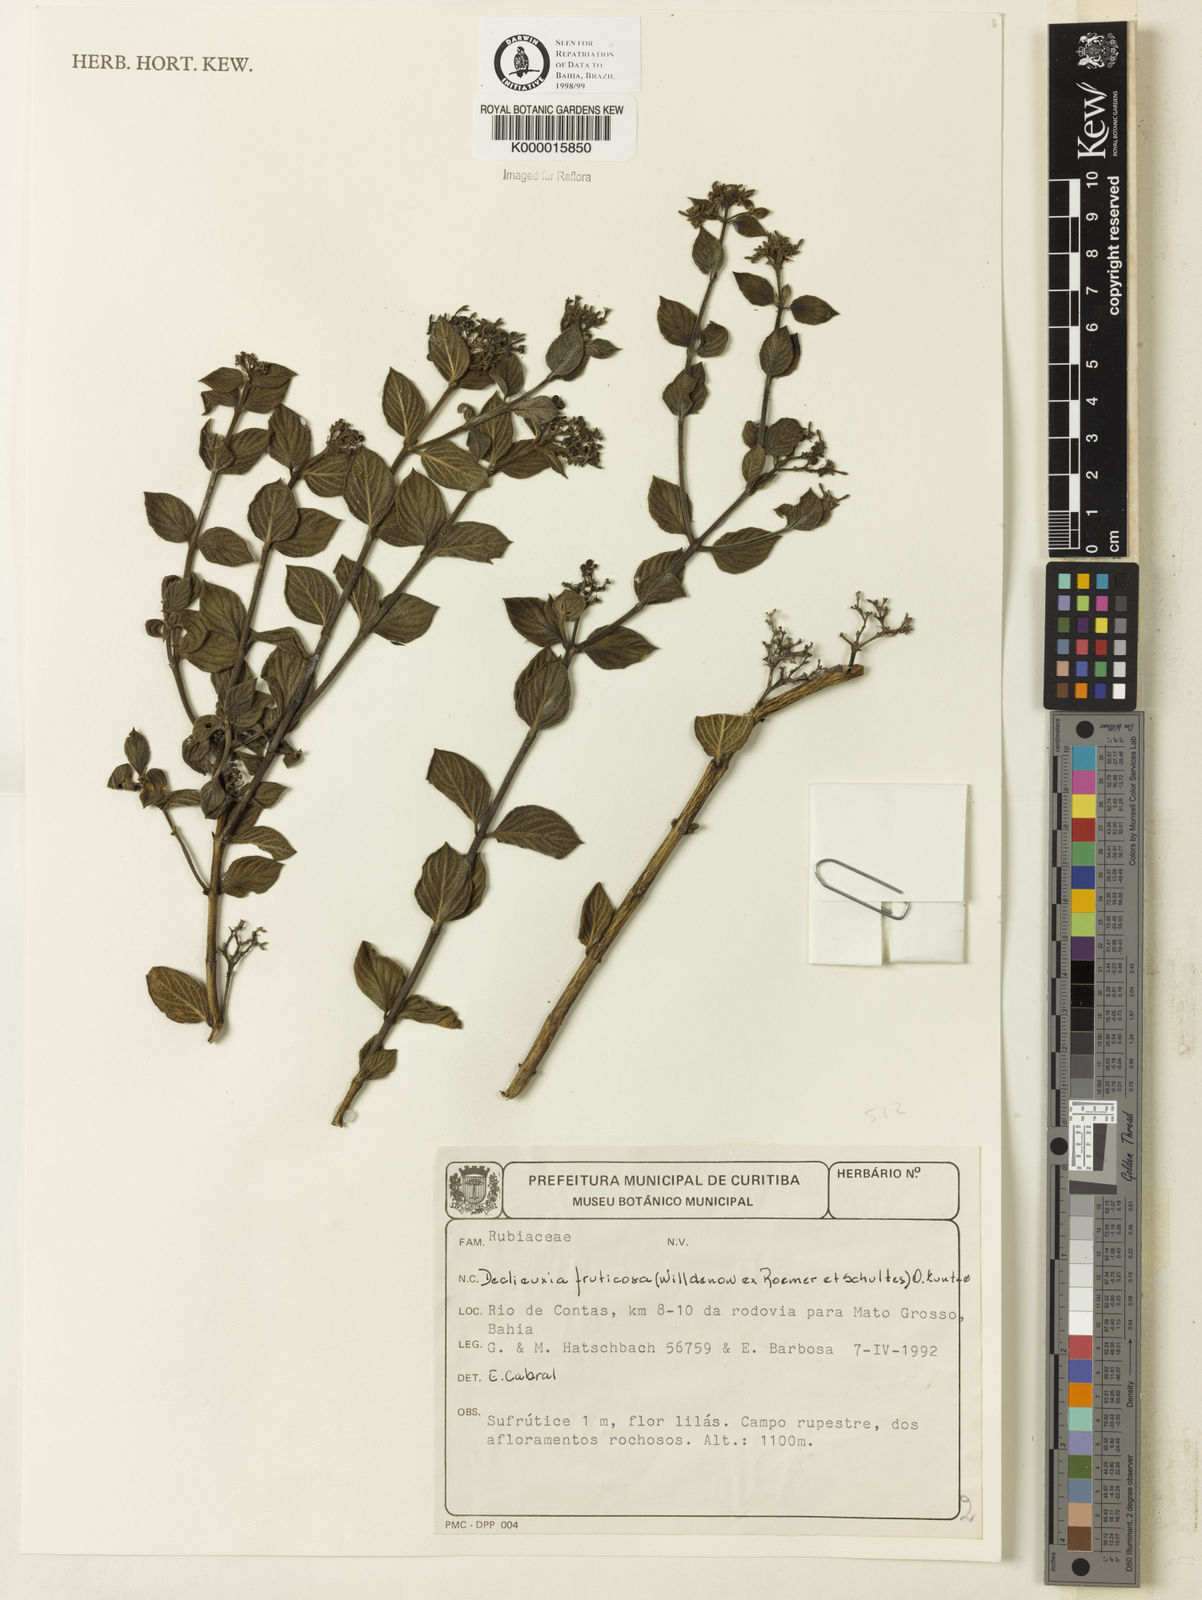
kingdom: Plantae
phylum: Tracheophyta
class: Magnoliopsida
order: Gentianales
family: Rubiaceae
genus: Declieuxia
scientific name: Declieuxia fruticosa
